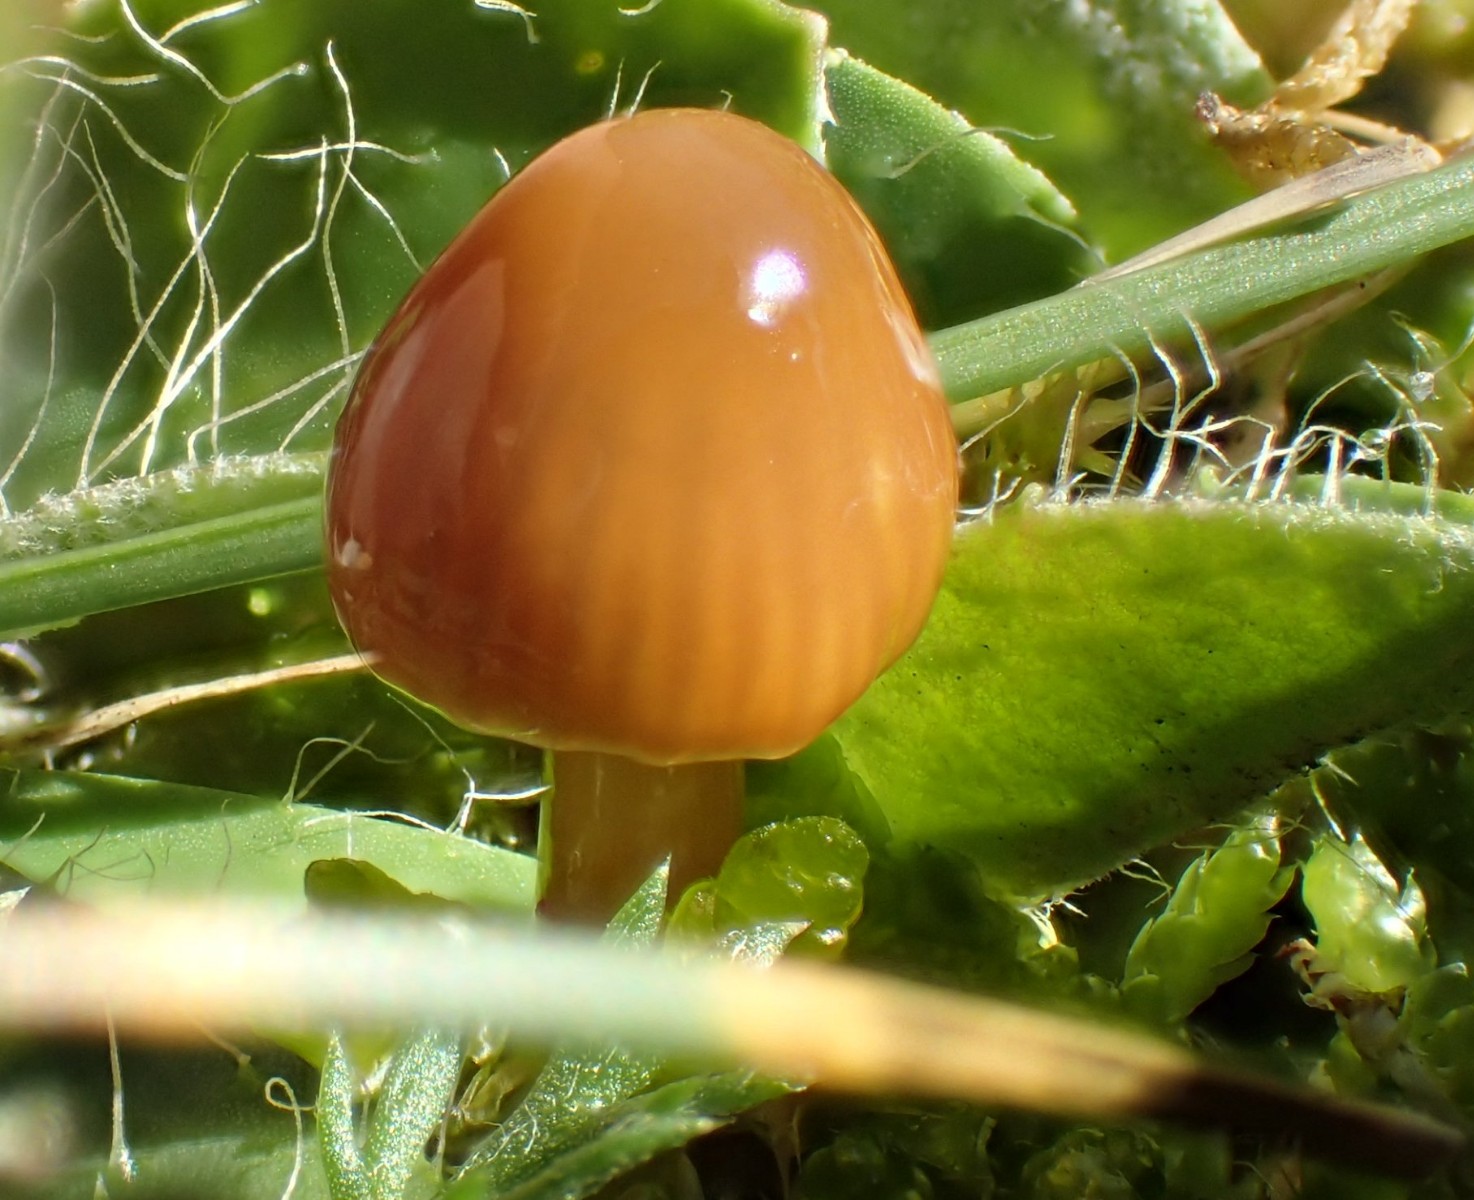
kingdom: Fungi
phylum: Basidiomycota
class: Agaricomycetes
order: Agaricales
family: Hygrophoraceae
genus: Gliophorus
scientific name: Gliophorus psittacinus
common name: papegøje-vokshat
